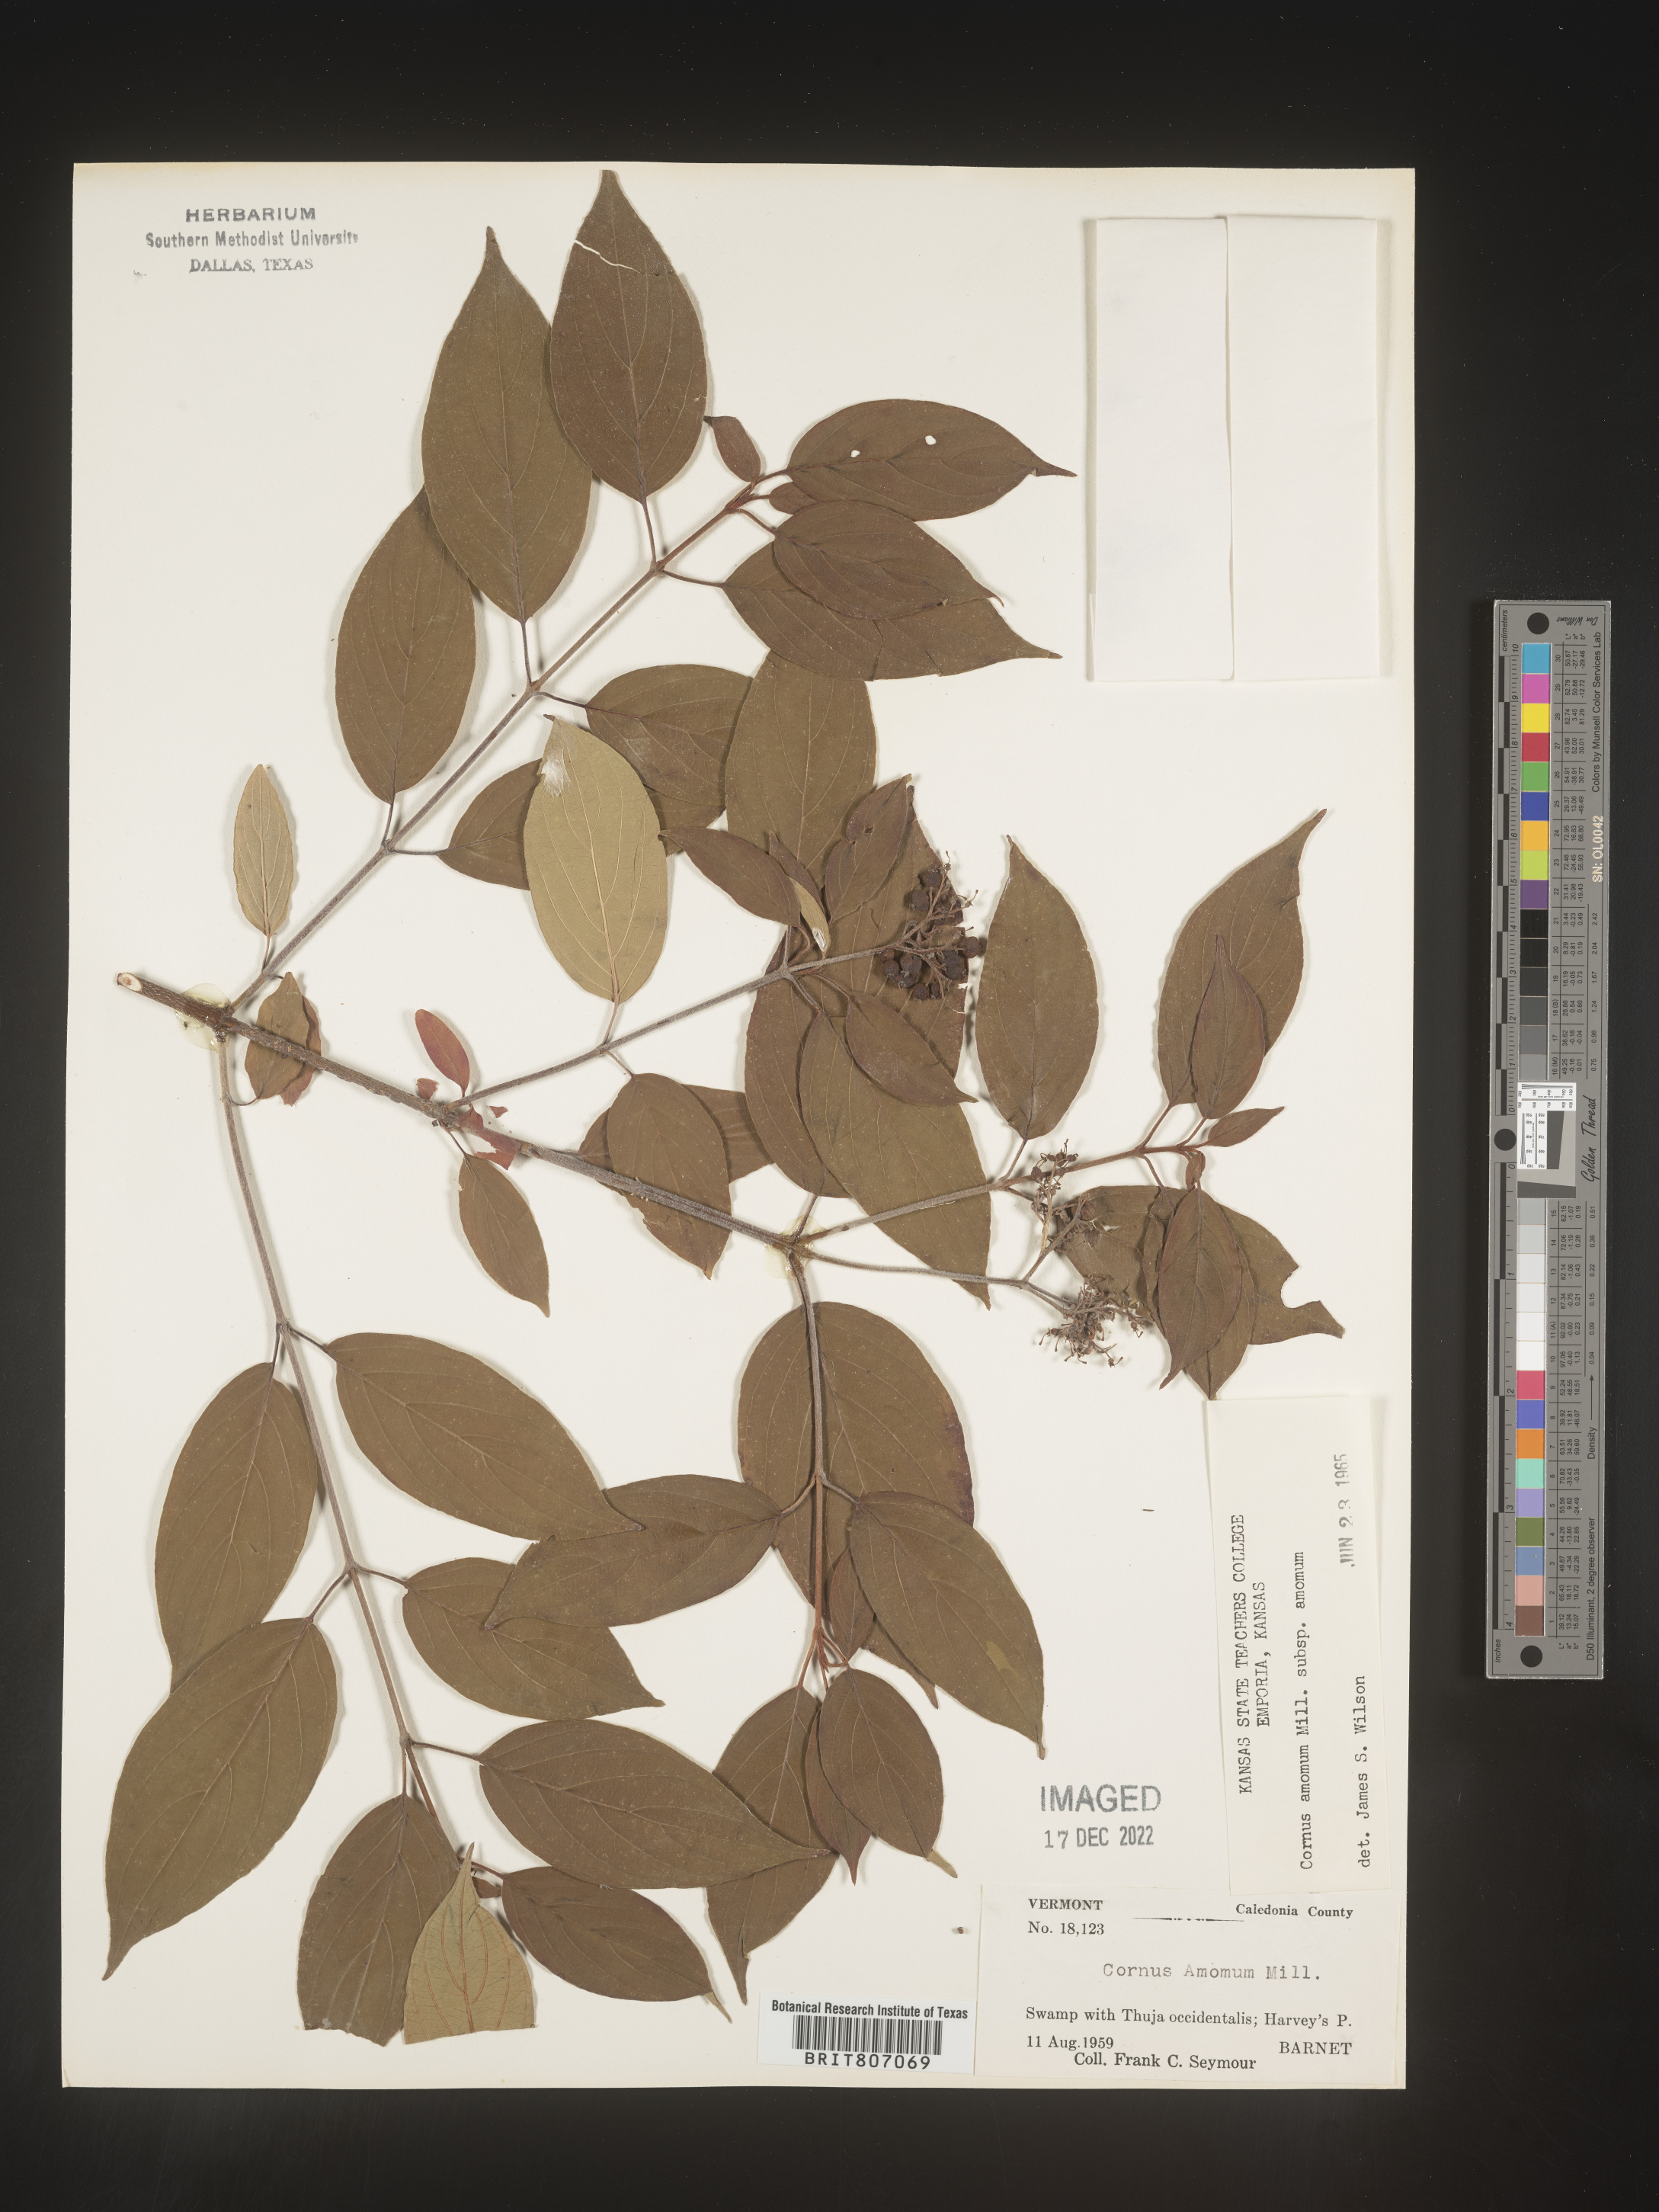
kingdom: Plantae
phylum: Tracheophyta
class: Magnoliopsida
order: Cornales
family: Cornaceae
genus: Cornus
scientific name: Cornus amomum
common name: Silky dogwood
